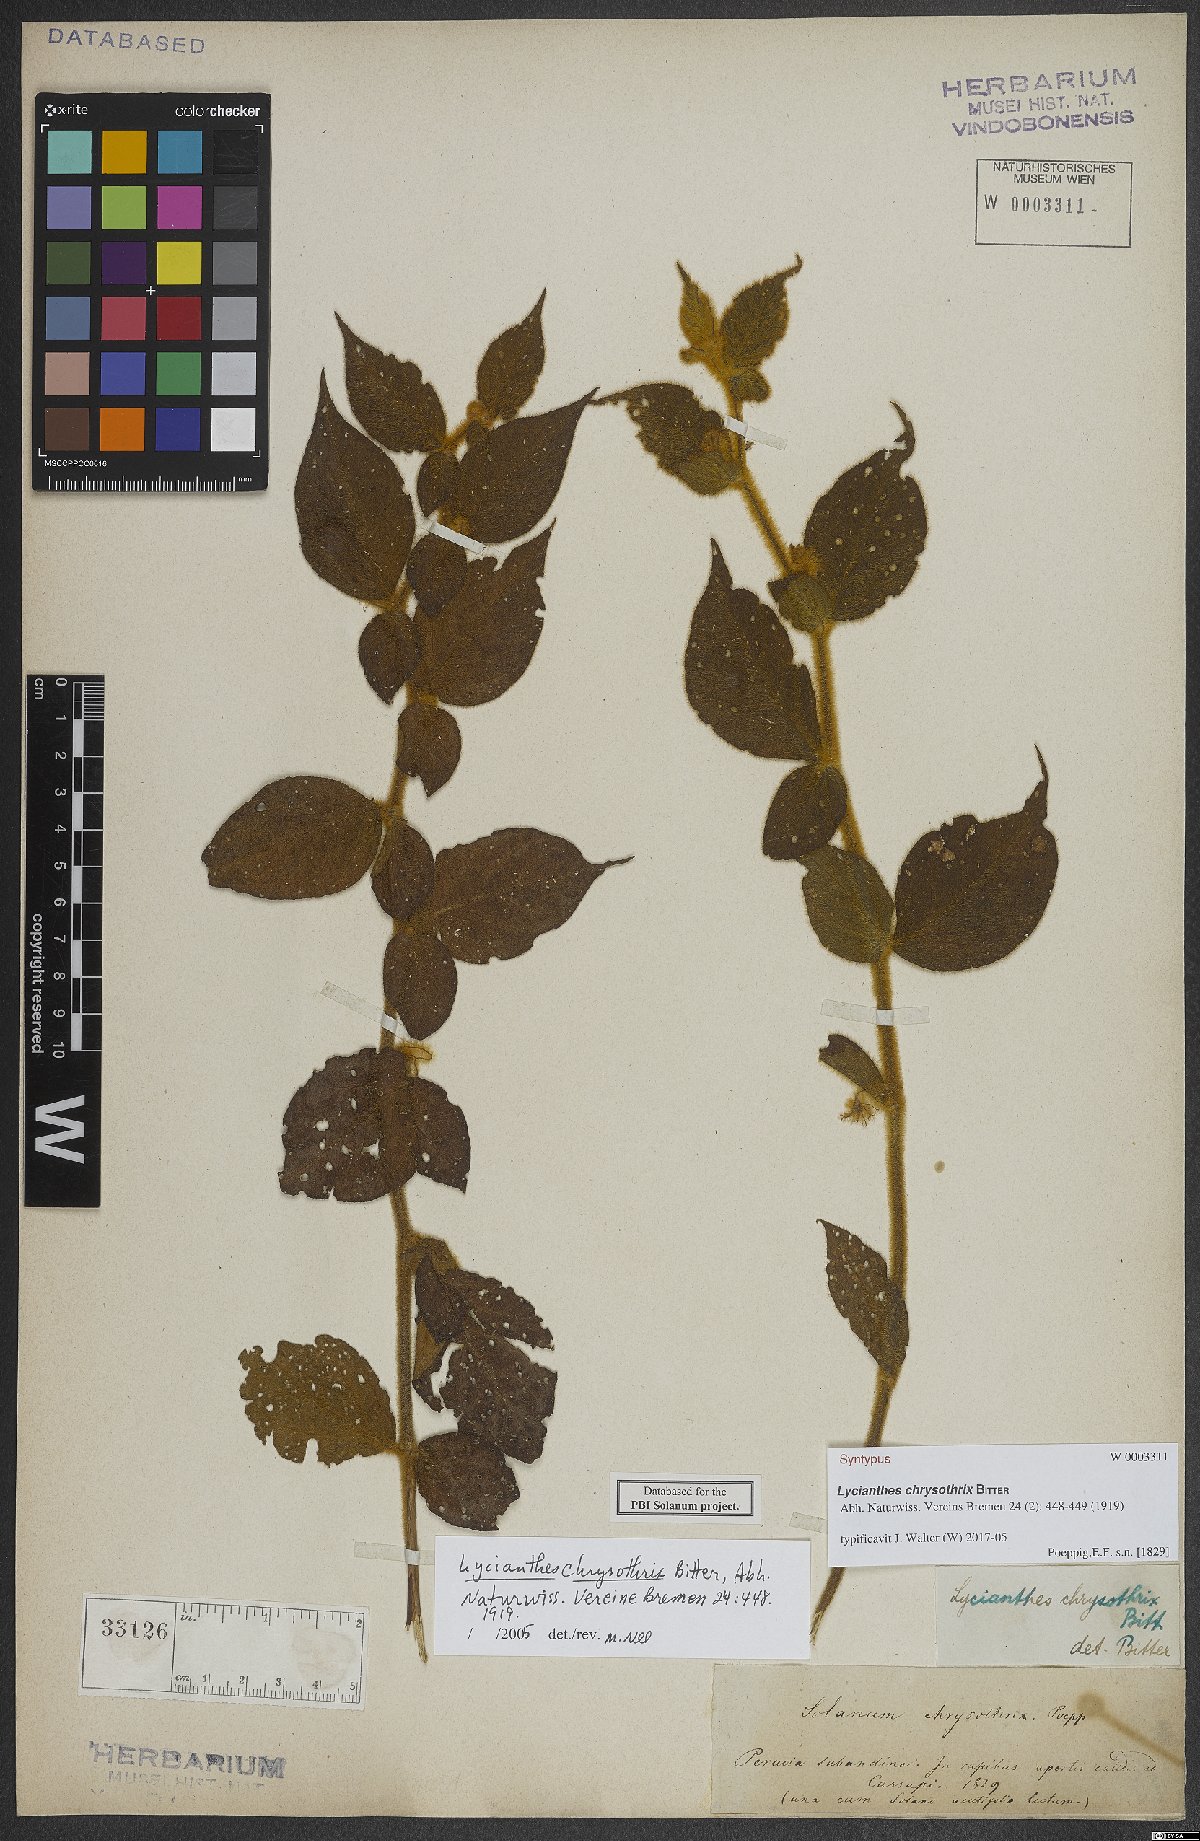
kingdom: Plantae
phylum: Tracheophyta
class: Magnoliopsida
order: Solanales
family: Solanaceae
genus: Lycianthes
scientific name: Lycianthes chrysothrix
